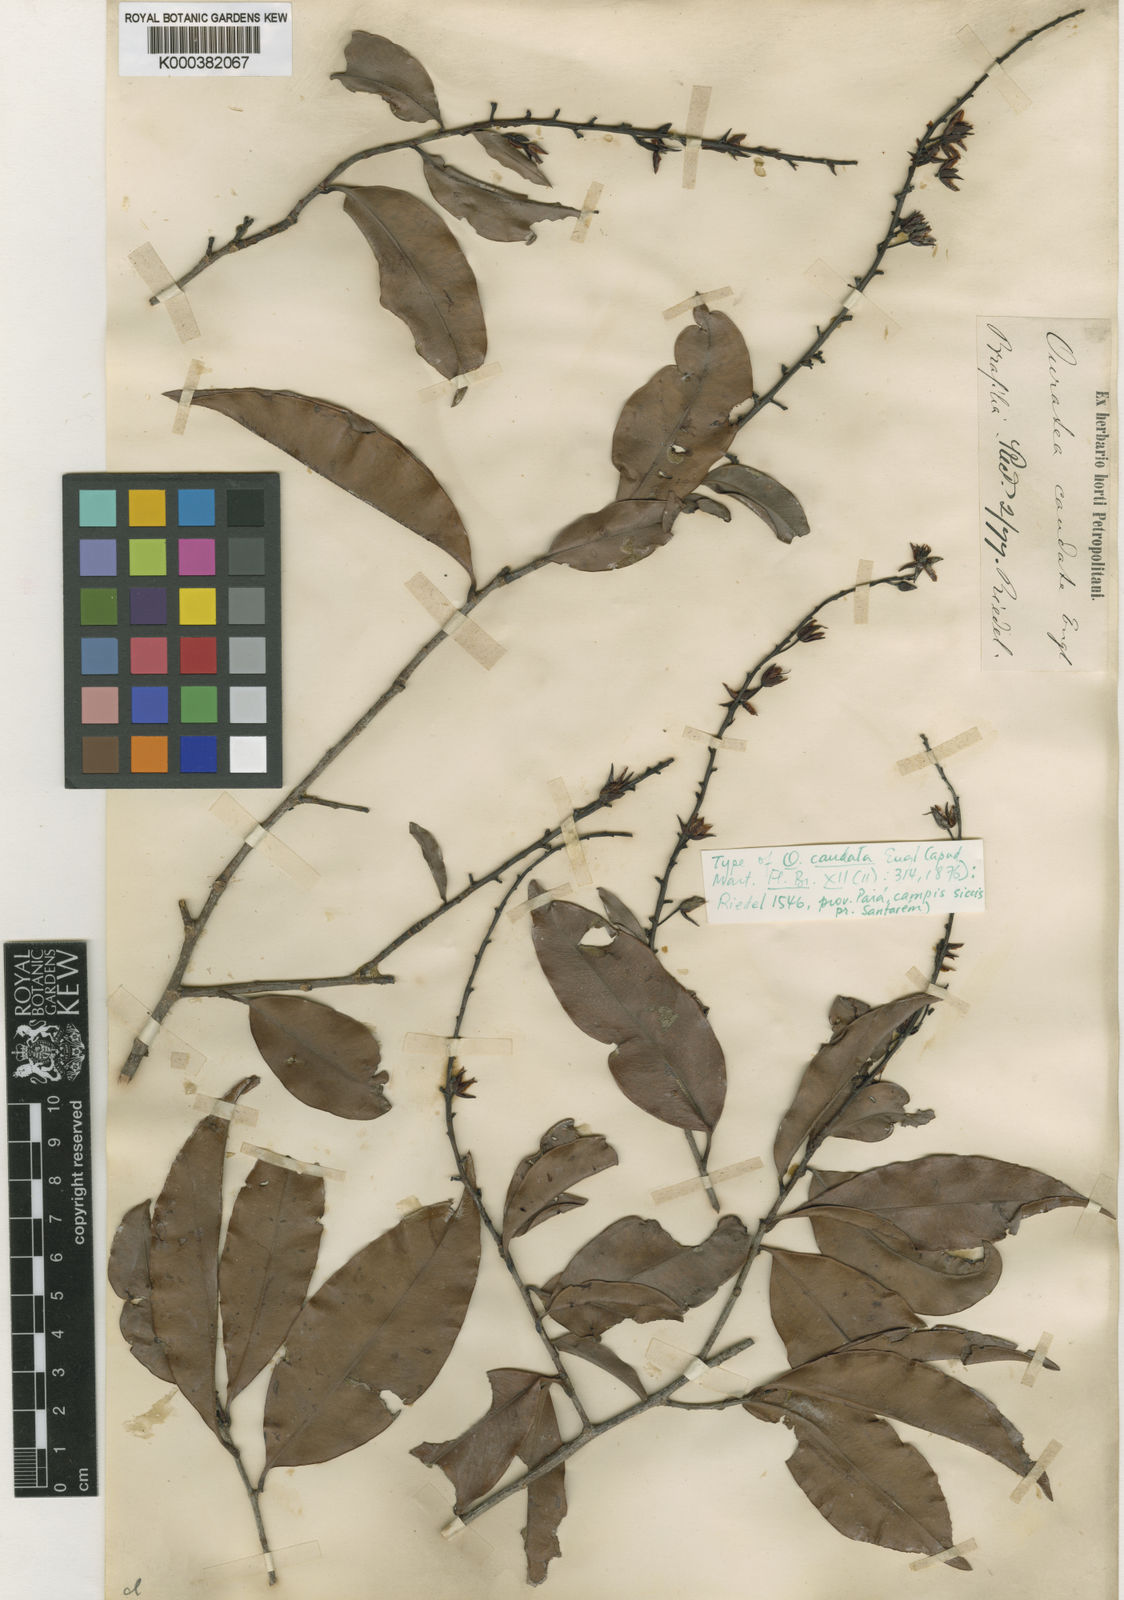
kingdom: Plantae
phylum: Tracheophyta
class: Magnoliopsida
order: Malpighiales
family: Ochnaceae
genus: Ouratea
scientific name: Ouratea caudata
